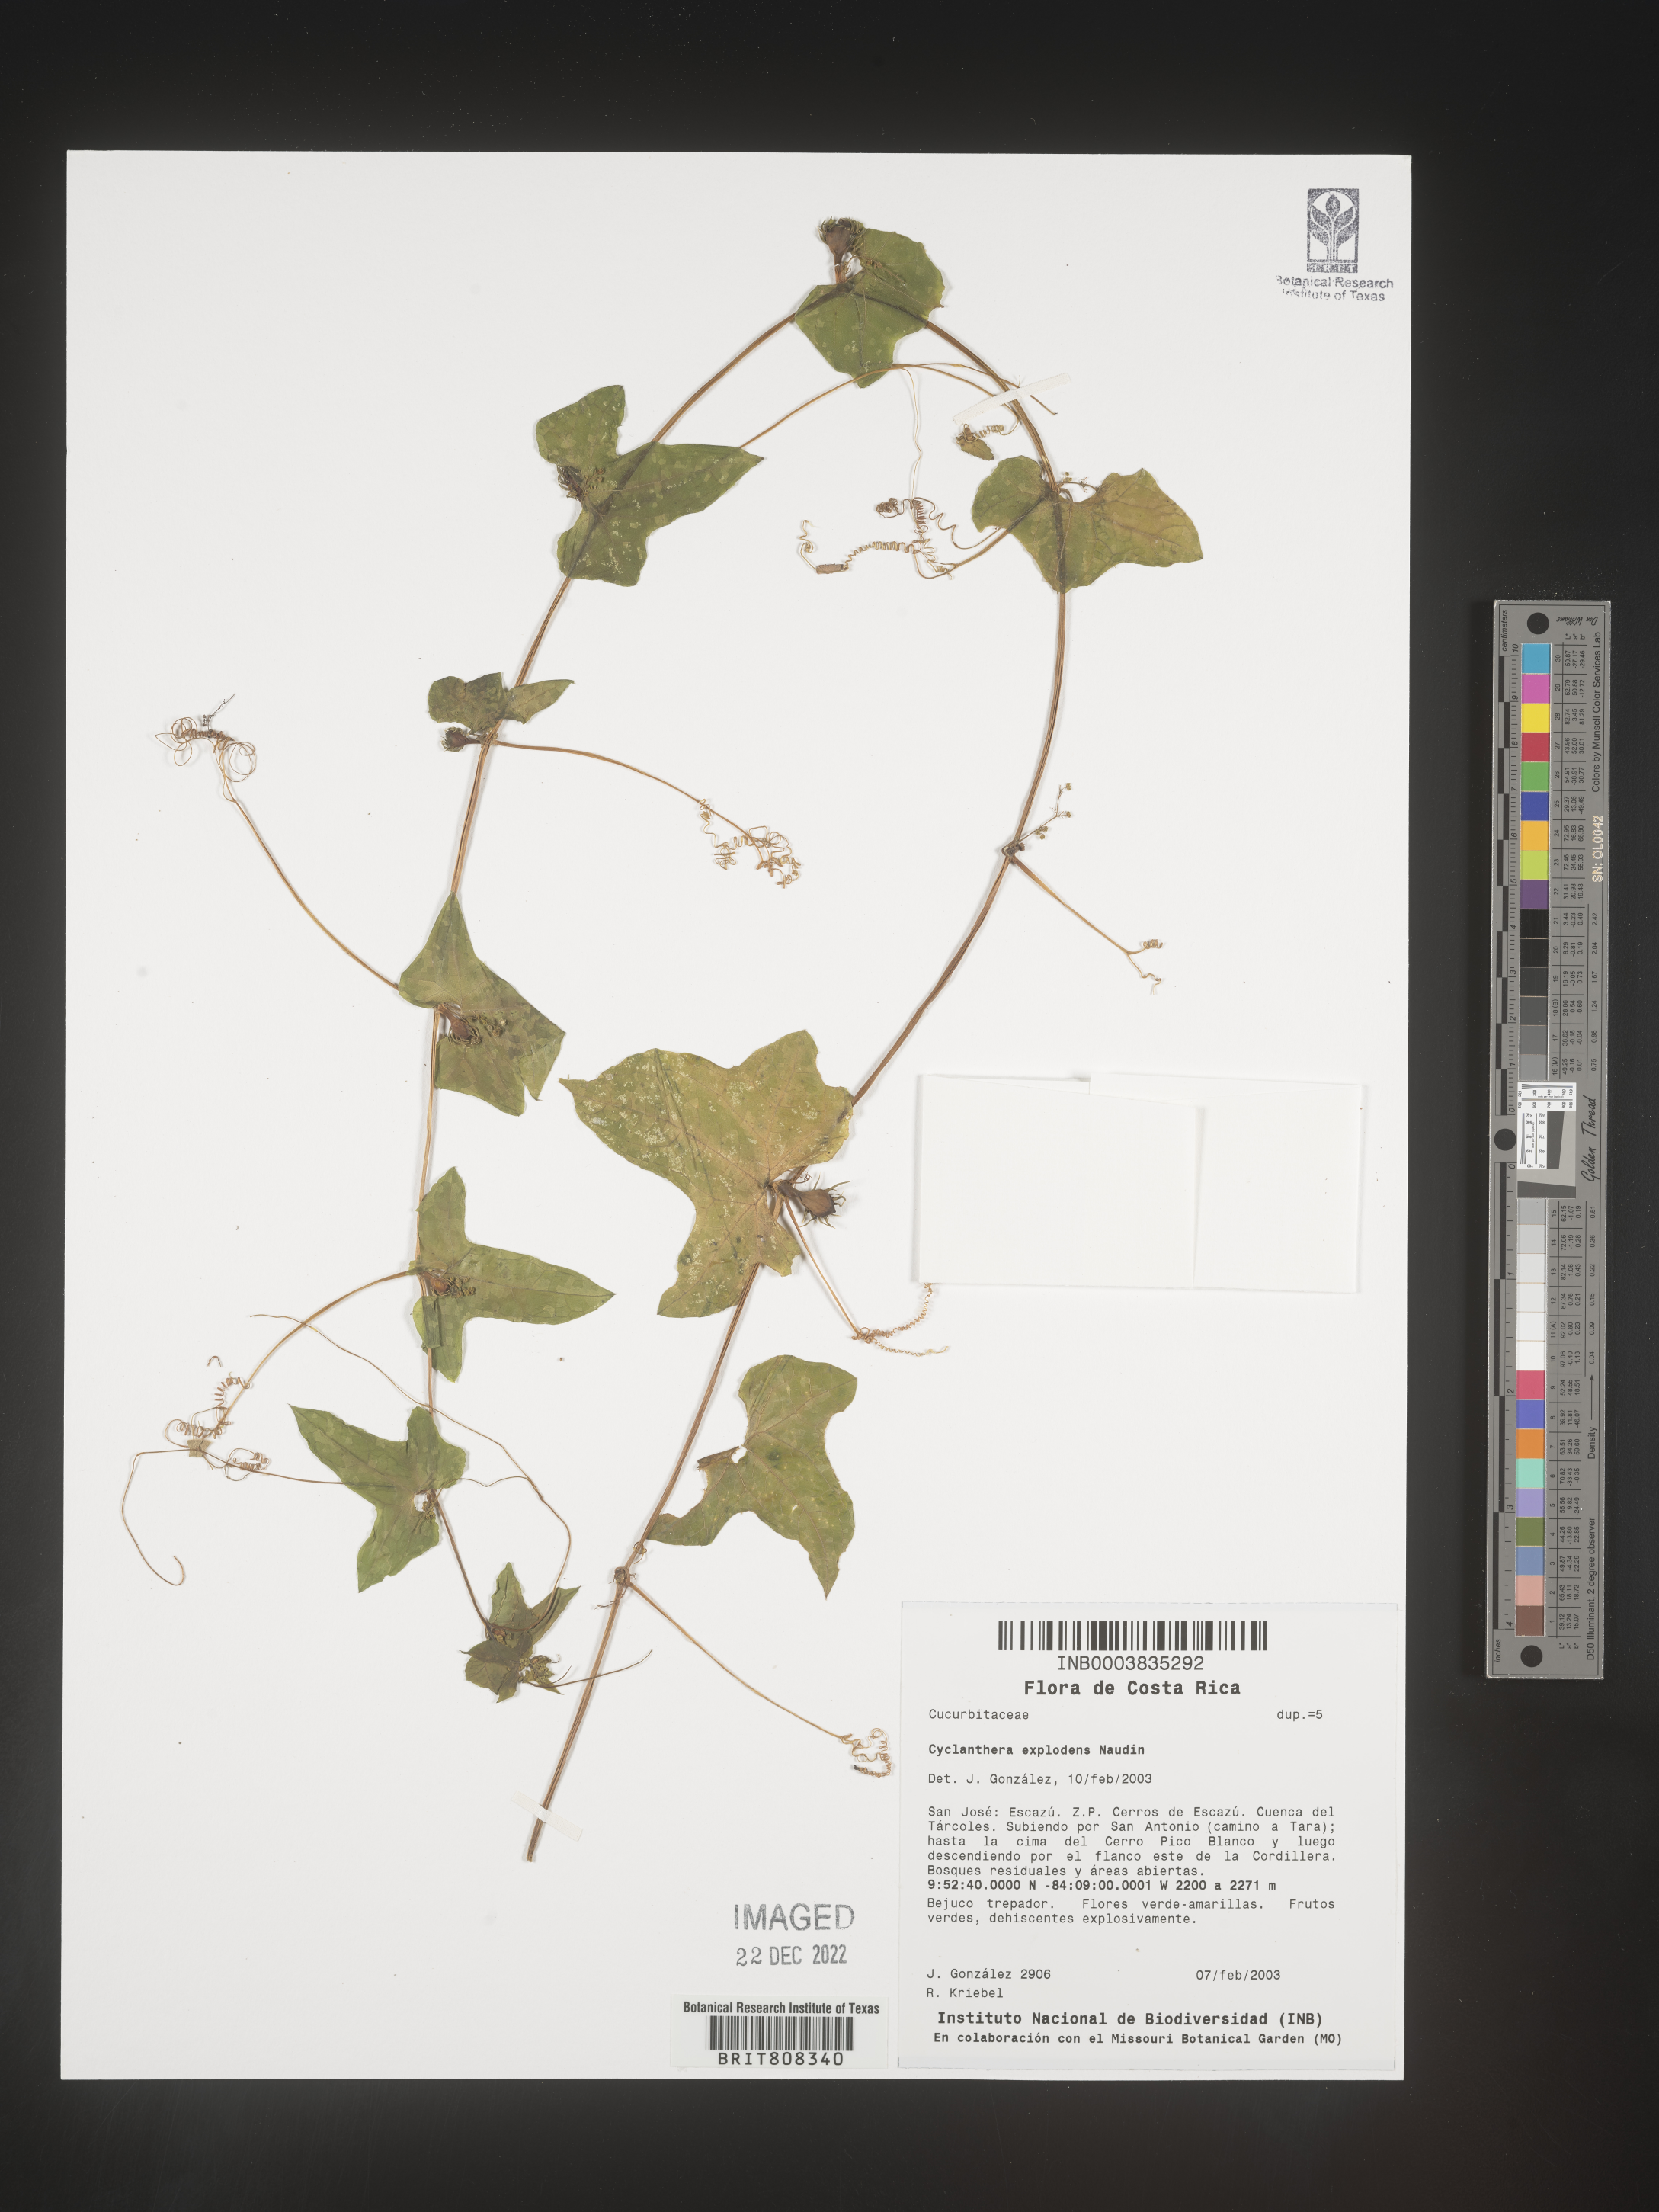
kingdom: Plantae
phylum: Tracheophyta
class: Magnoliopsida
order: Cucurbitales
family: Cucurbitaceae
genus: Cyclanthera
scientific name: Cyclanthera
